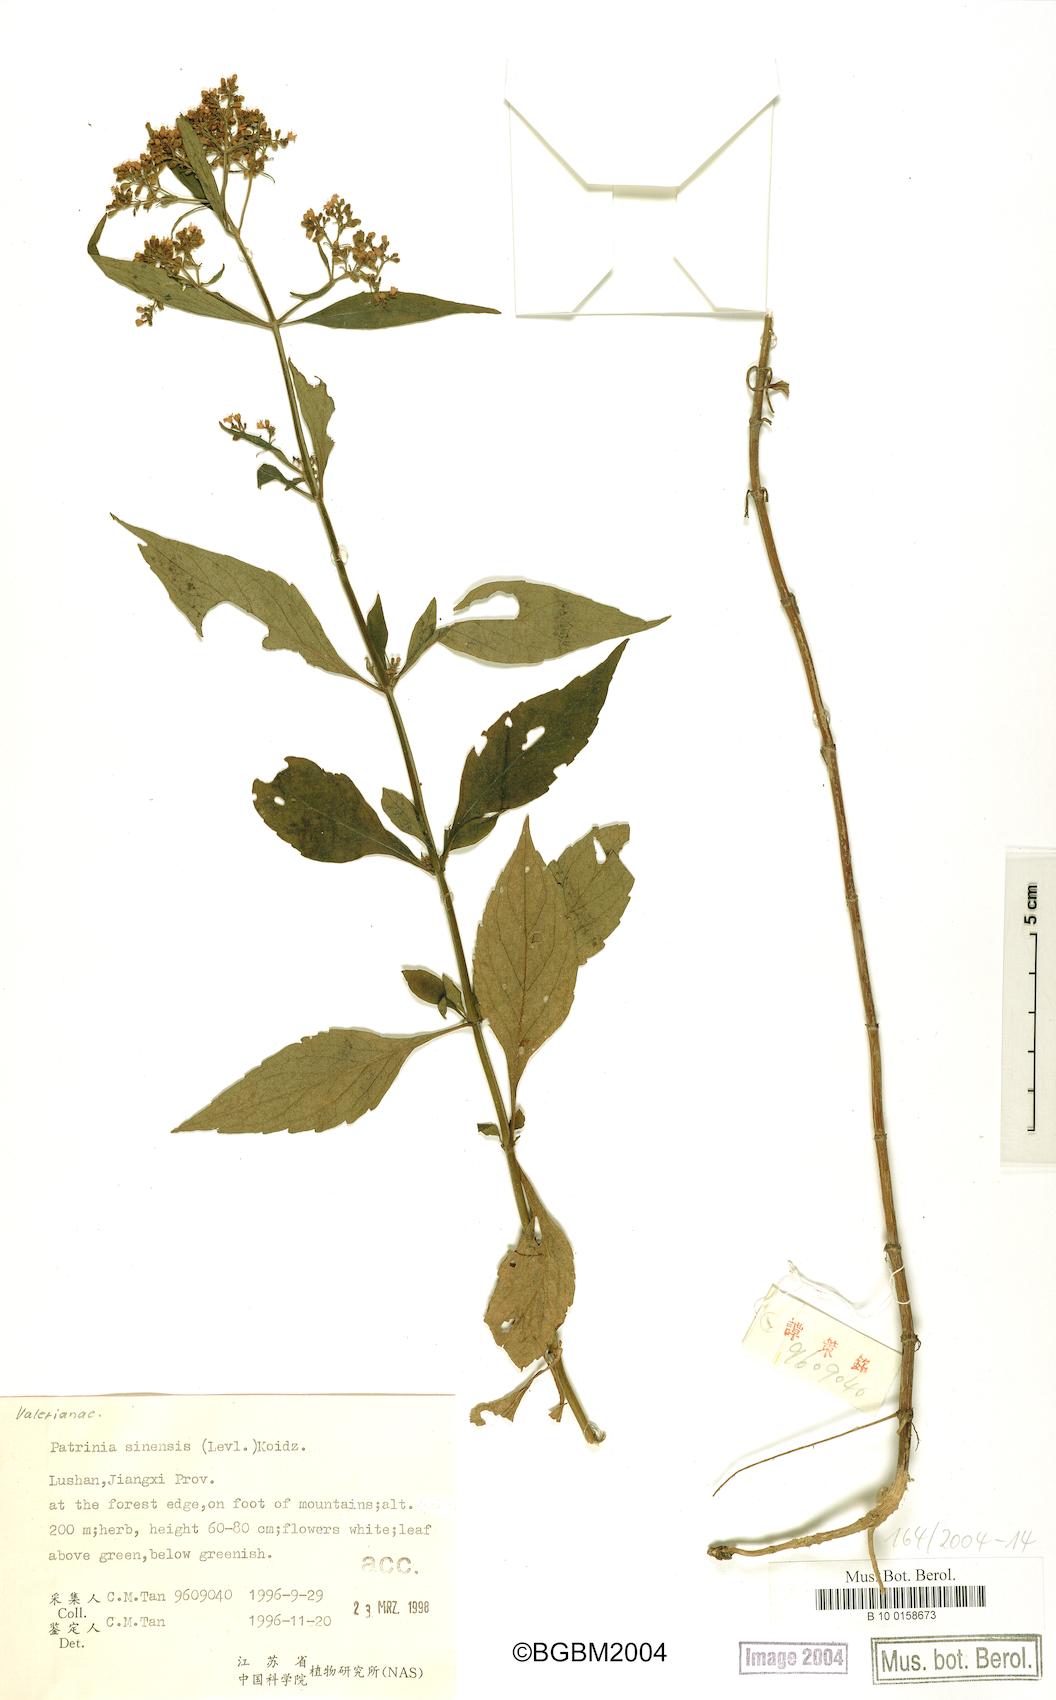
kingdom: Plantae
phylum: Tracheophyta
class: Magnoliopsida
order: Dipsacales
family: Caprifoliaceae
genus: Patrinia
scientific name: Patrinia villosa
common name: Patrinia
